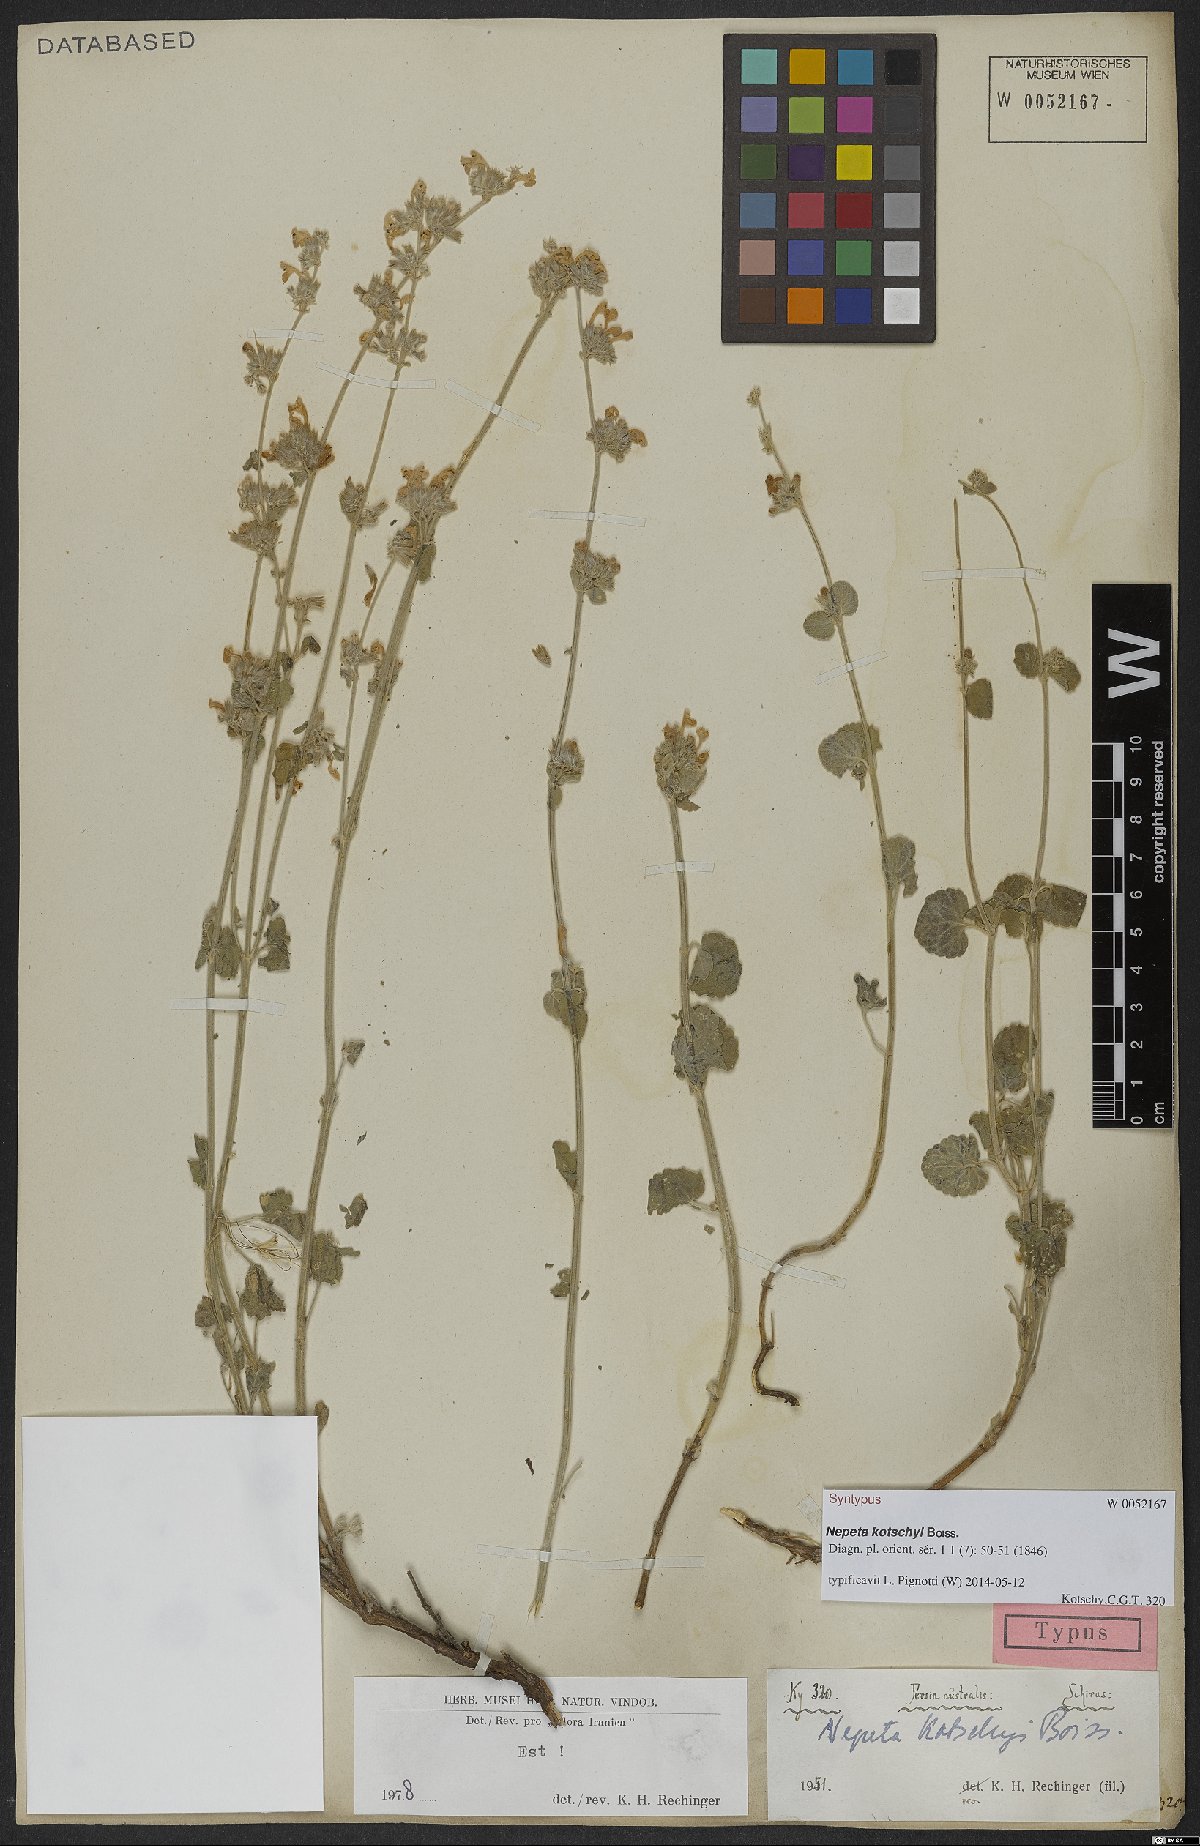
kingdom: Plantae
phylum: Tracheophyta
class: Magnoliopsida
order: Lamiales
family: Lamiaceae
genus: Nepeta
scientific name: Nepeta kotschyi
